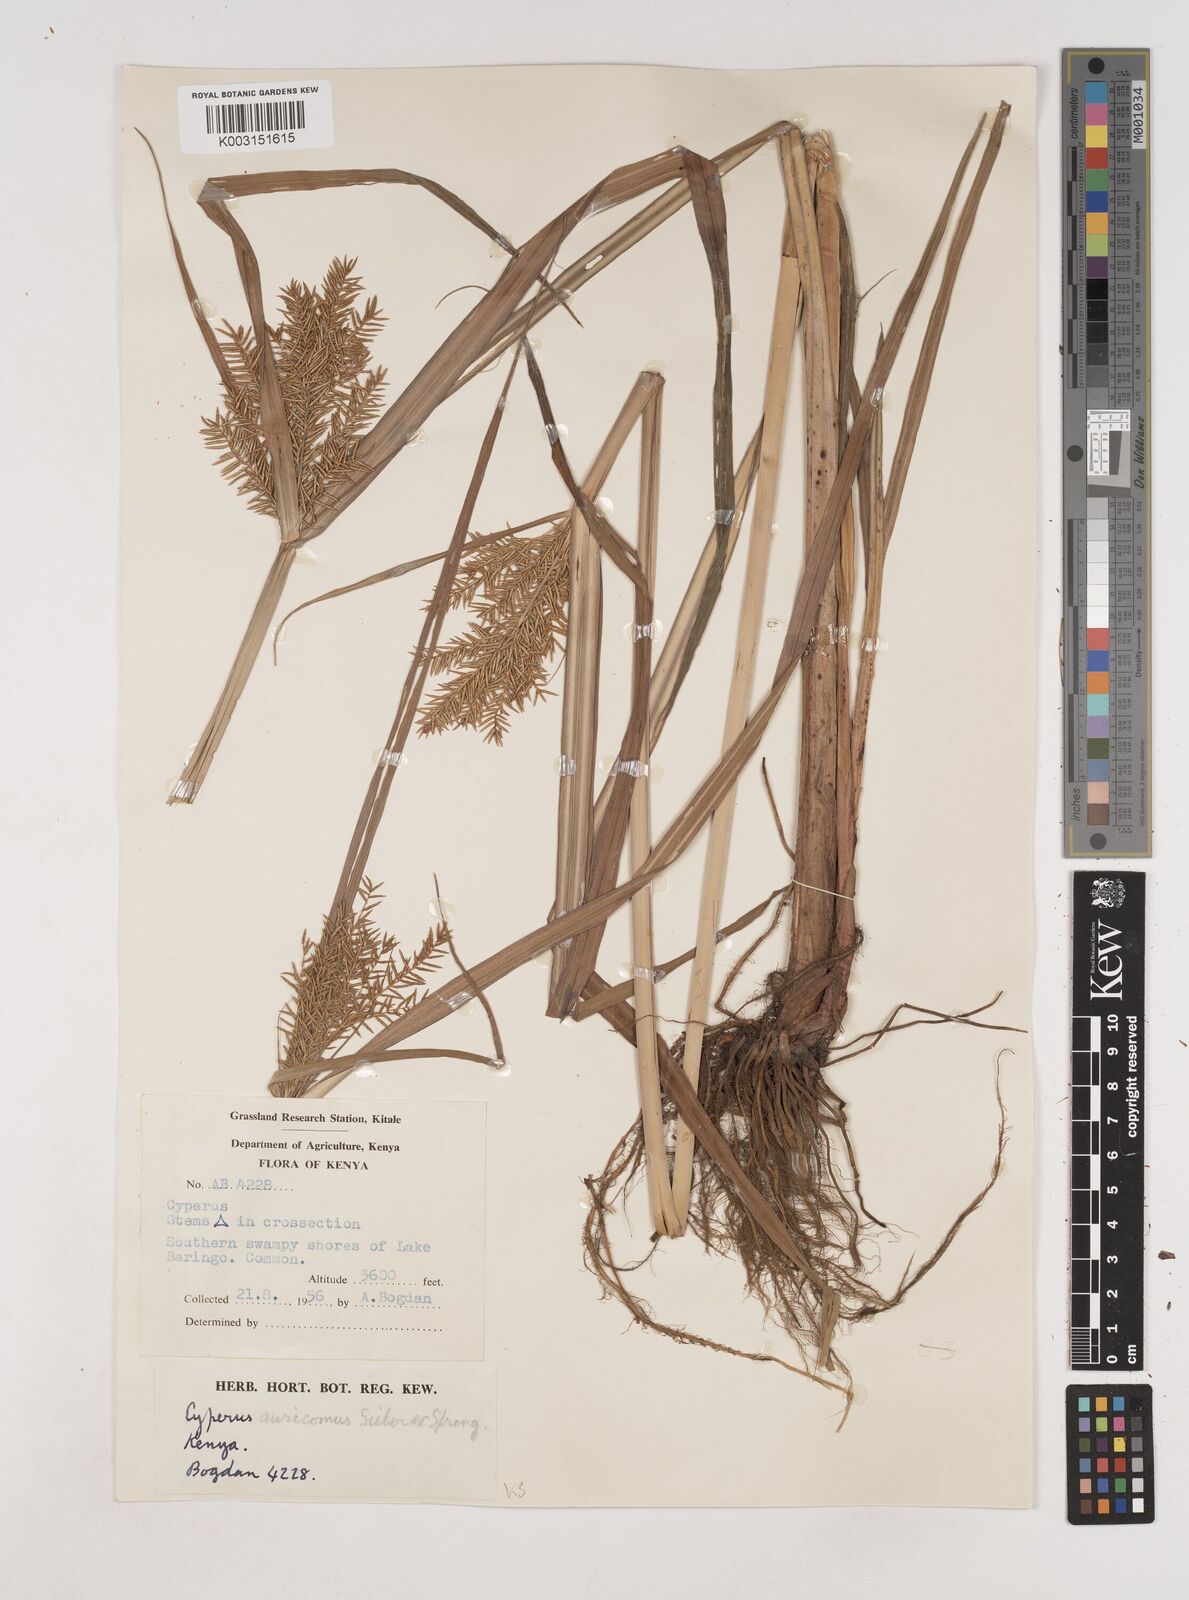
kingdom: Plantae
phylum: Tracheophyta
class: Liliopsida
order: Poales
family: Cyperaceae
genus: Cyperus
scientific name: Cyperus digitatus
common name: Finger flatsedge
